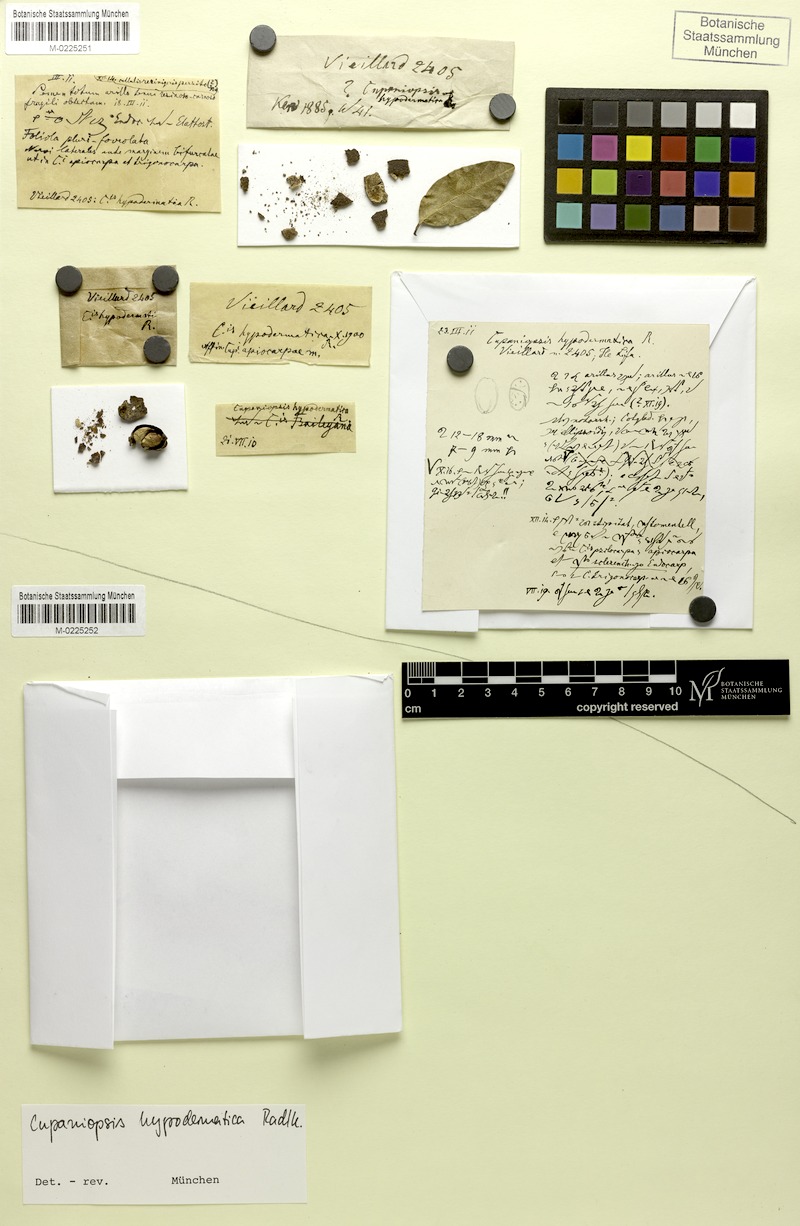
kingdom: Plantae
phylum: Tracheophyta
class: Magnoliopsida
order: Sapindales
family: Sapindaceae
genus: Cupaniopsis
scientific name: Cupaniopsis hypodermatica
